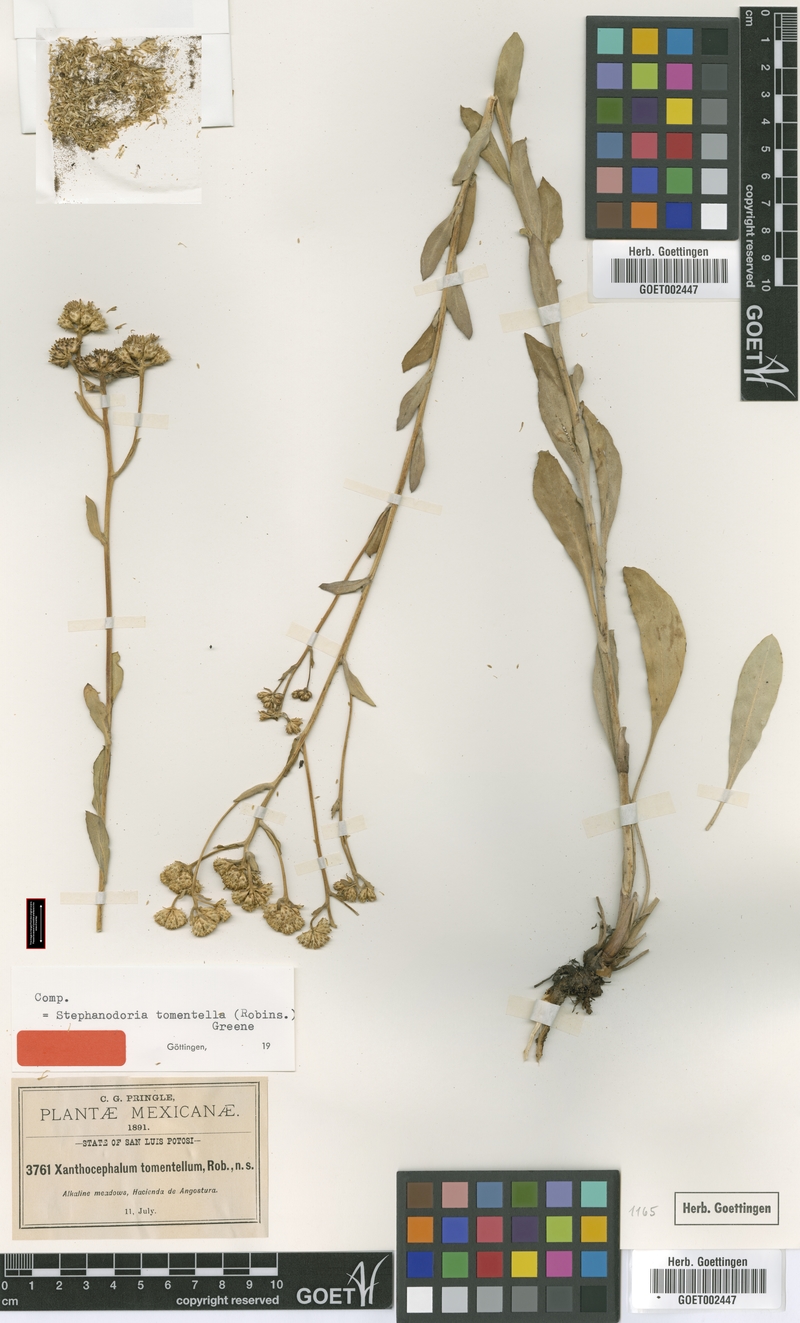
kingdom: Plantae
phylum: Tracheophyta
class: Magnoliopsida
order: Asterales
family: Asteraceae
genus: Stephanodoria
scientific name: Stephanodoria tomentella
